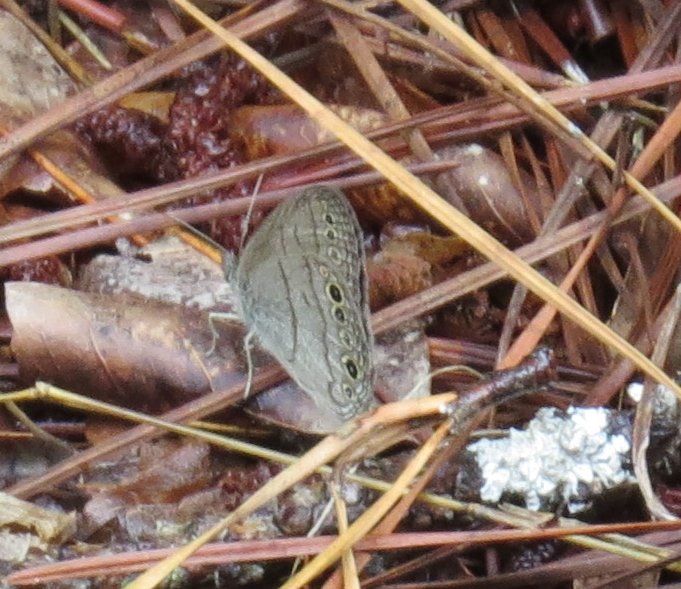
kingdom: Animalia
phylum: Arthropoda
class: Insecta
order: Lepidoptera
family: Nymphalidae
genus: Hermeuptychia
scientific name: Hermeuptychia
